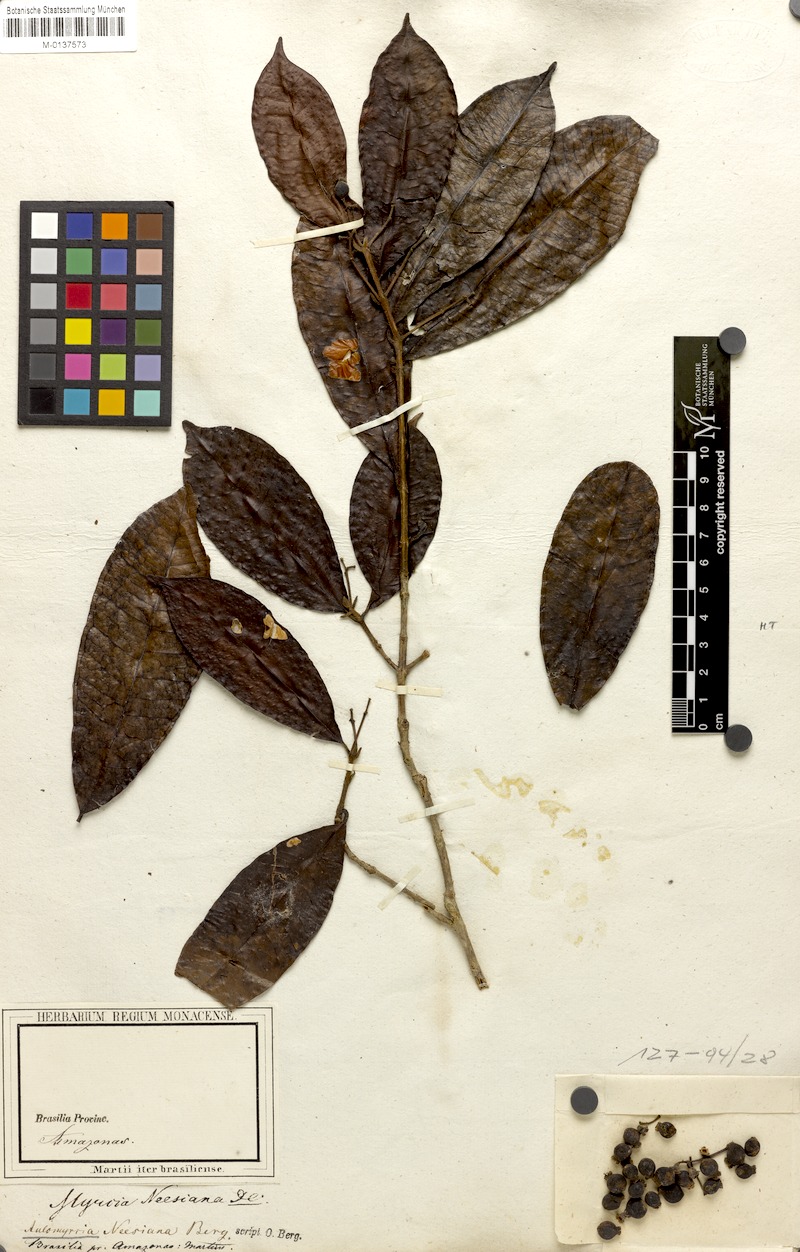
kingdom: Plantae
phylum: Tracheophyta
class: Magnoliopsida
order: Myrtales
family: Myrtaceae
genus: Myrcia
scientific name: Myrcia neesiana
